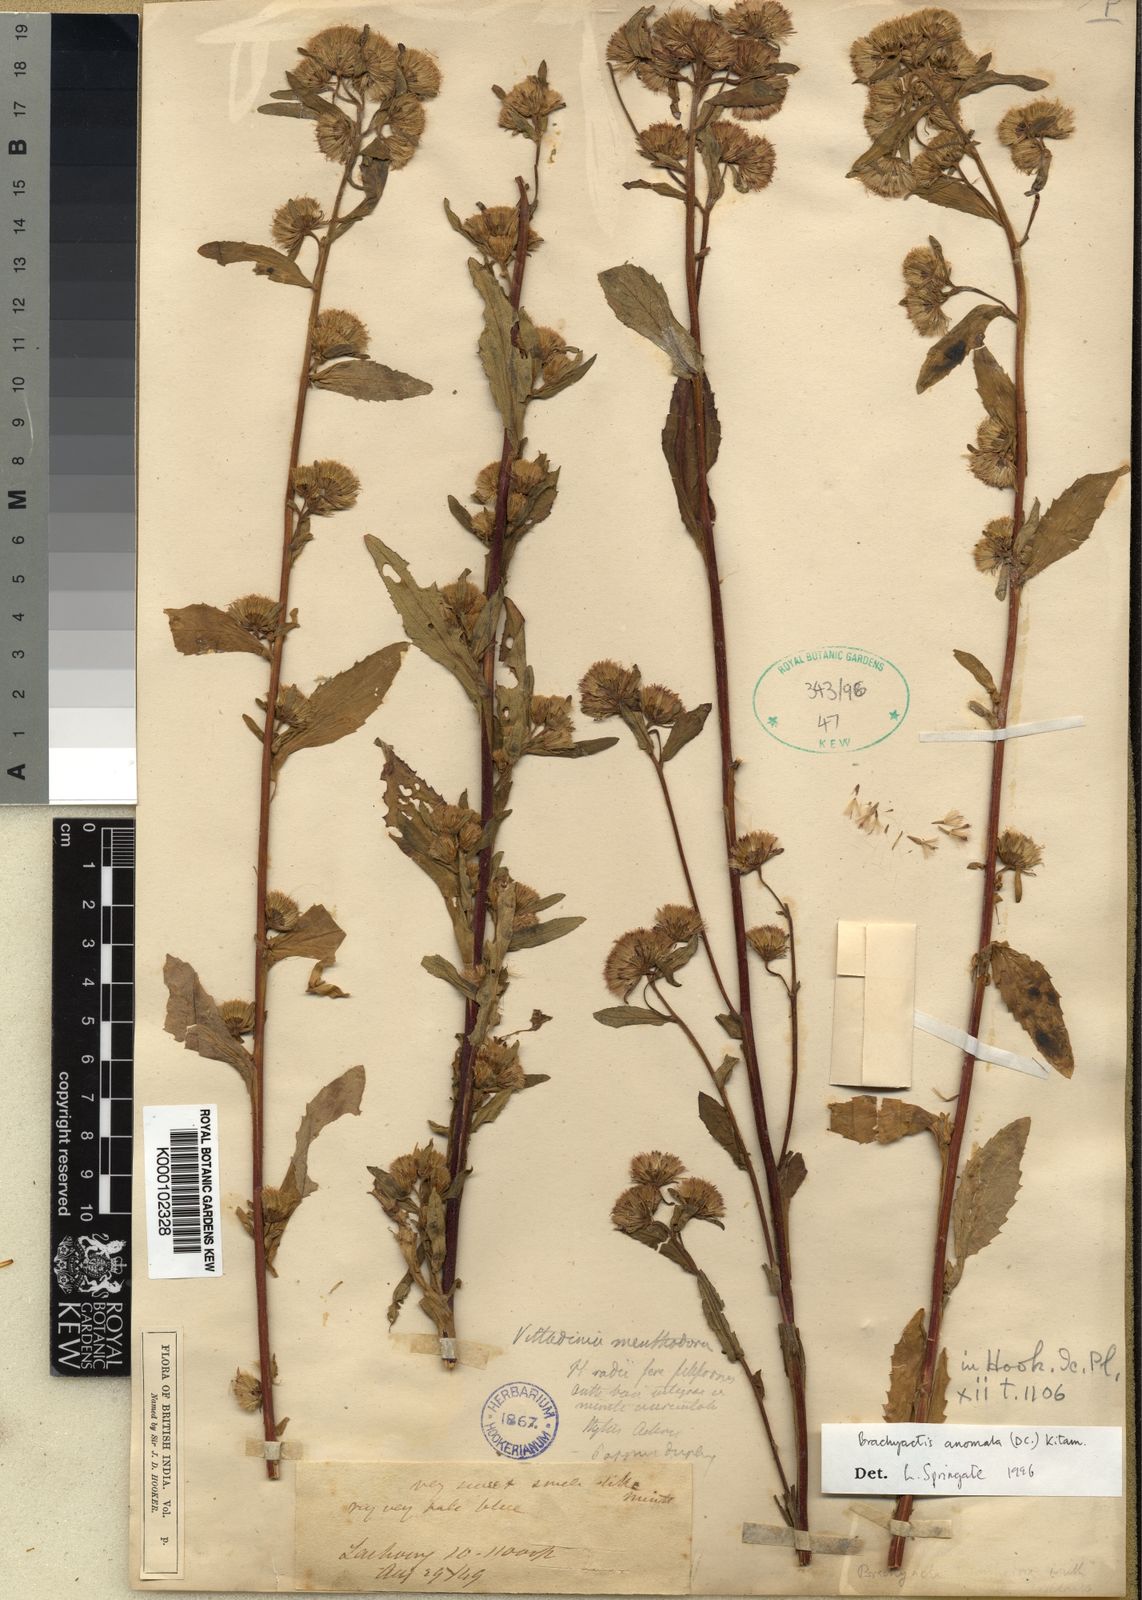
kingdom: Plantae
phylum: Tracheophyta
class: Magnoliopsida
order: Asterales
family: Asteraceae
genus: Aster
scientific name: Aster
